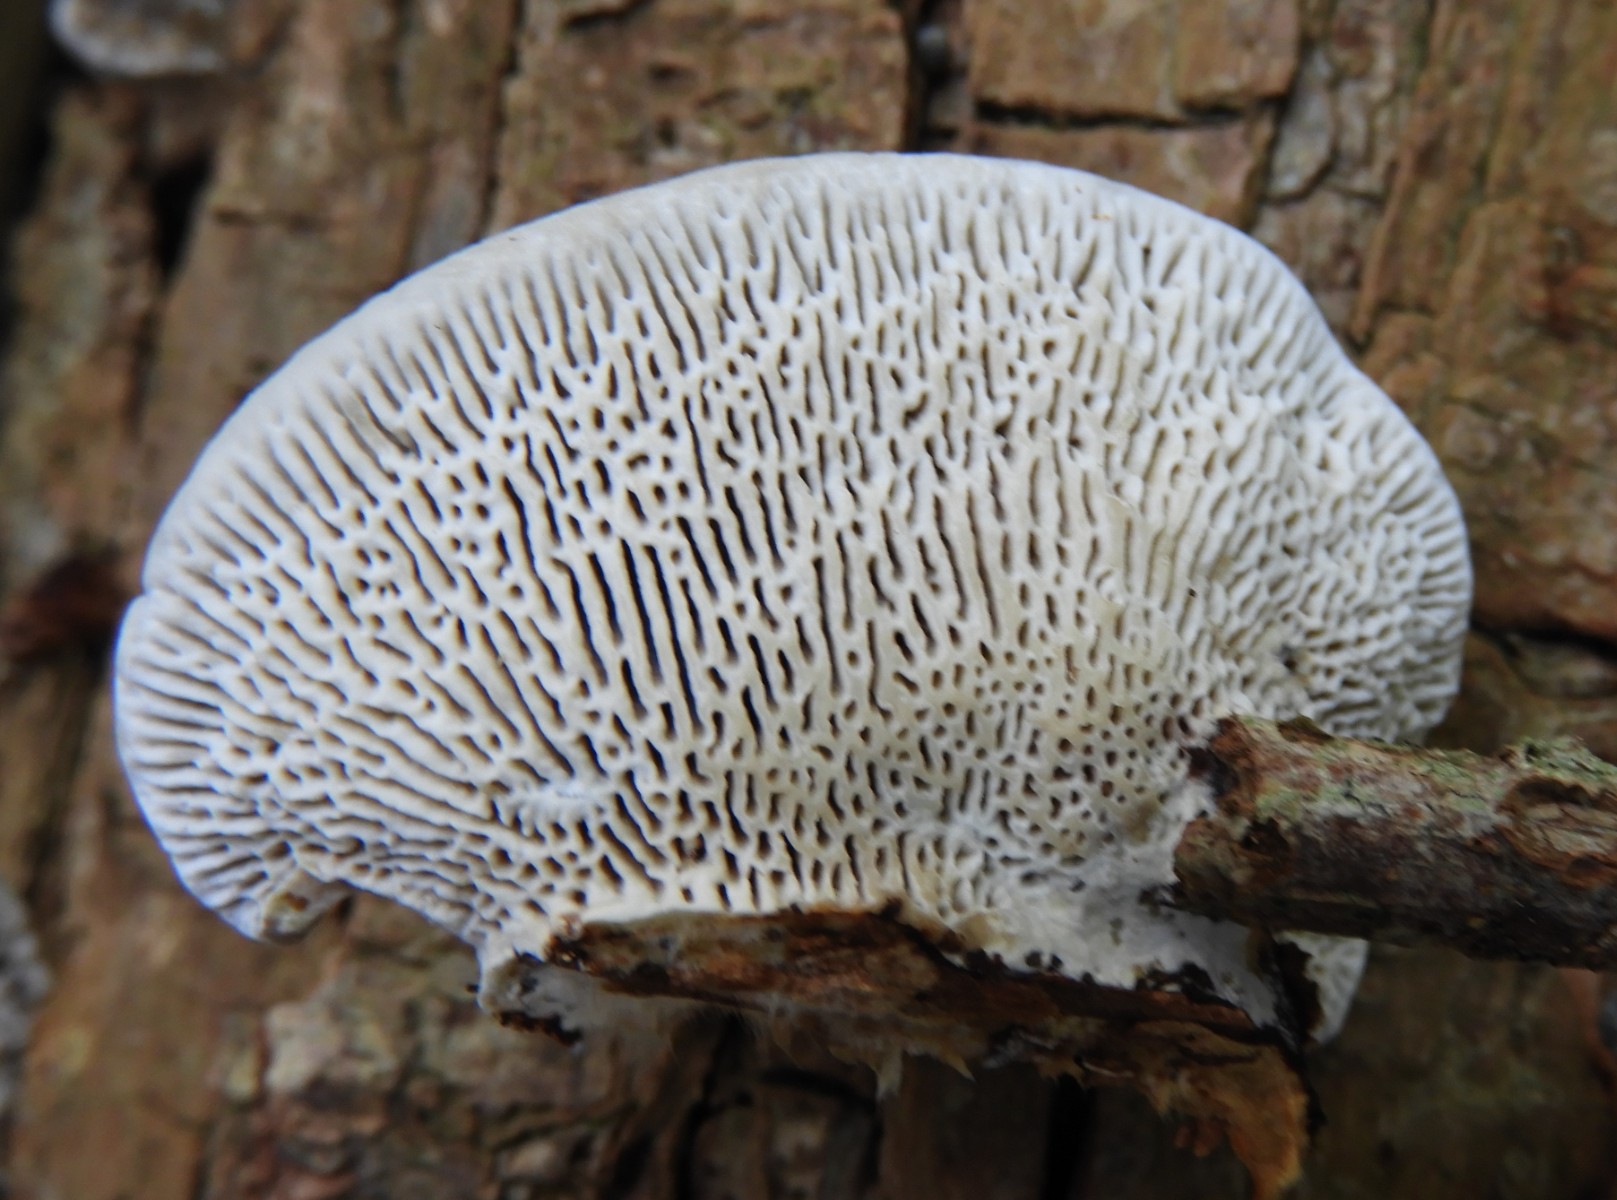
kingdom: Fungi
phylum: Basidiomycota
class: Agaricomycetes
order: Polyporales
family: Polyporaceae
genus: Daedaleopsis
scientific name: Daedaleopsis confragosa
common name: rødmende læderporesvamp
